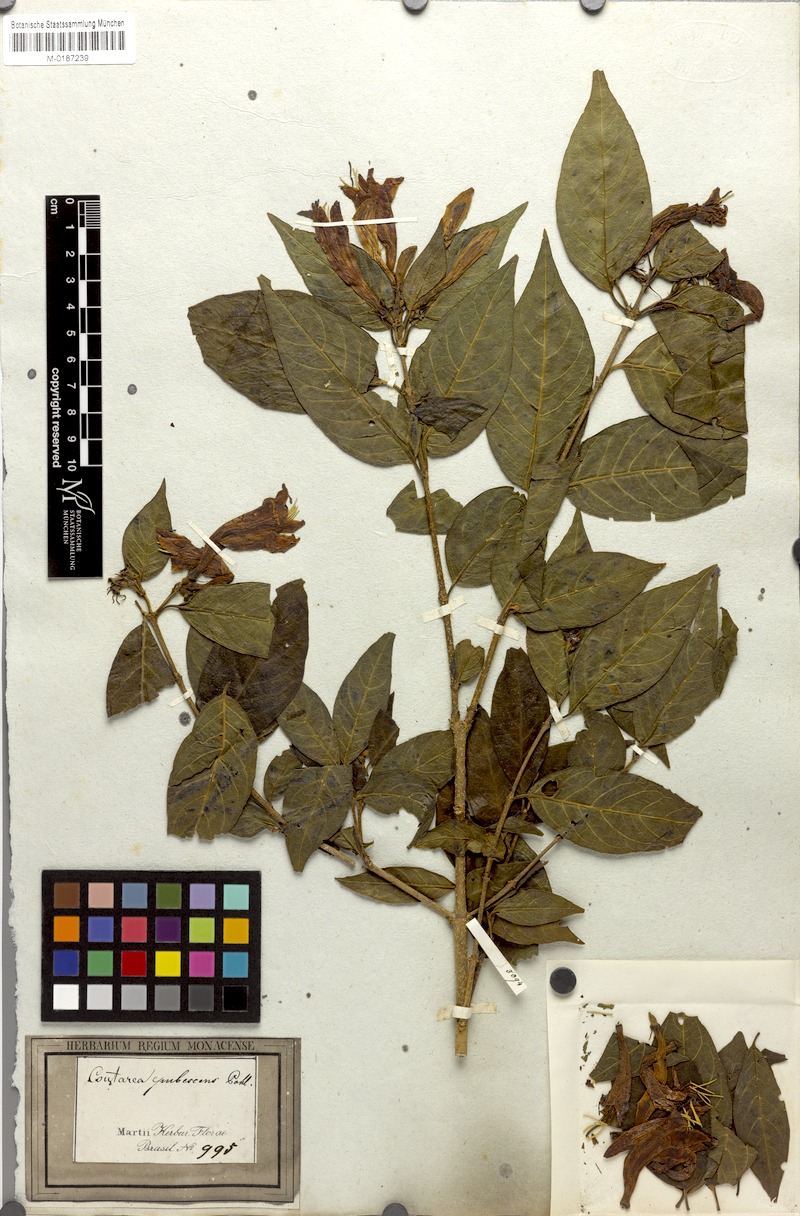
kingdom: Plantae
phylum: Tracheophyta
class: Magnoliopsida
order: Gentianales
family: Rubiaceae
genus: Coutarea
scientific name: Coutarea hexandra
